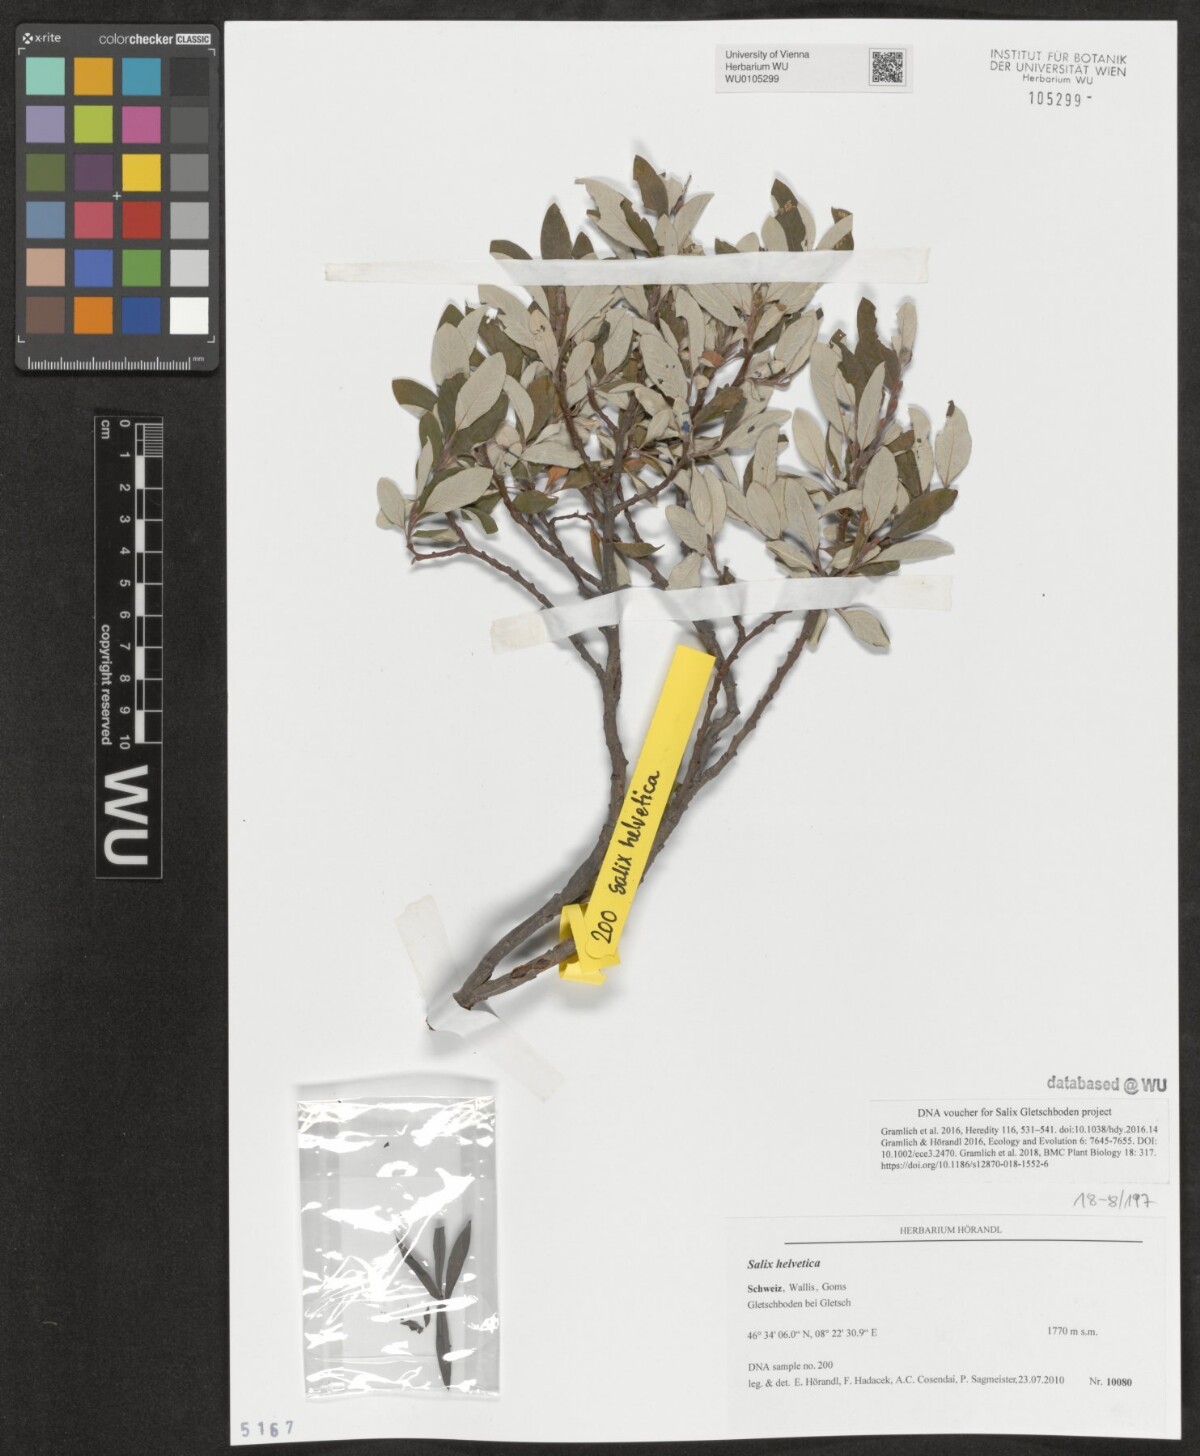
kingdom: Plantae
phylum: Tracheophyta
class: Magnoliopsida
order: Malpighiales
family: Salicaceae
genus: Salix
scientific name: Salix helvetica
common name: Swiss willow
